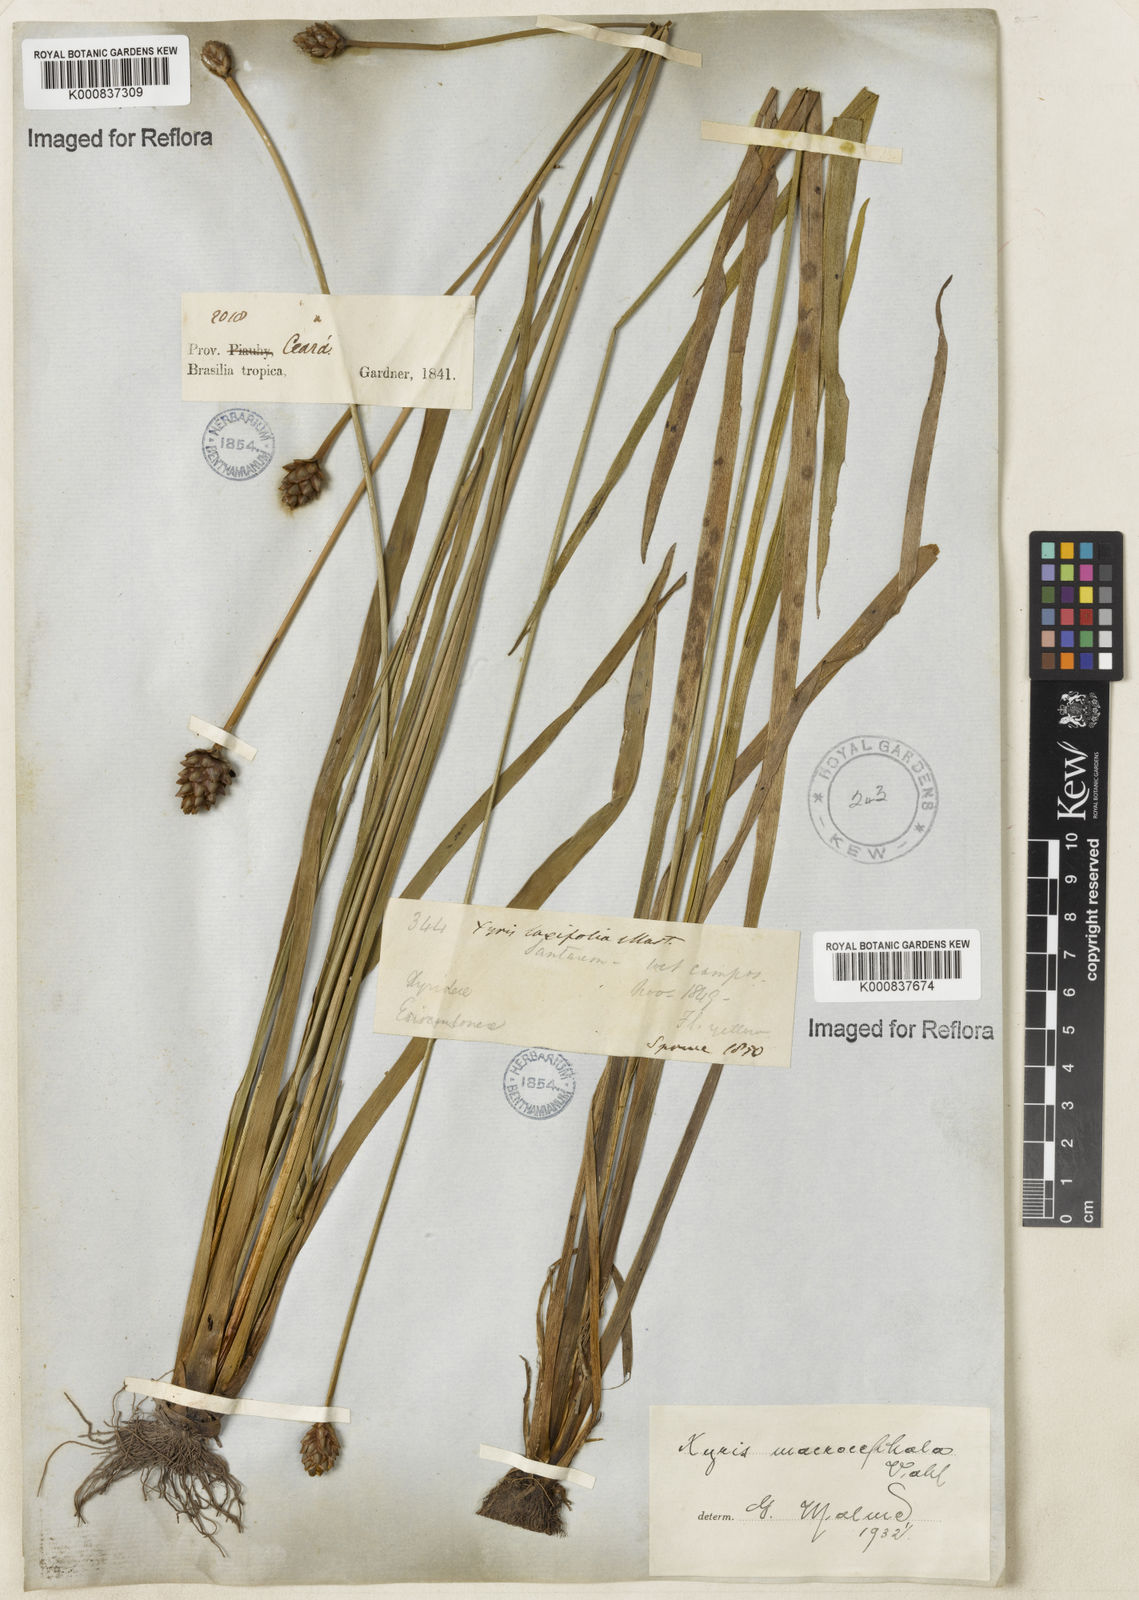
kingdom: Plantae
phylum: Tracheophyta
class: Liliopsida
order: Poales
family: Xyridaceae
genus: Xyris
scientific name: Xyris jupicai
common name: Richard's yelloweyed grass
